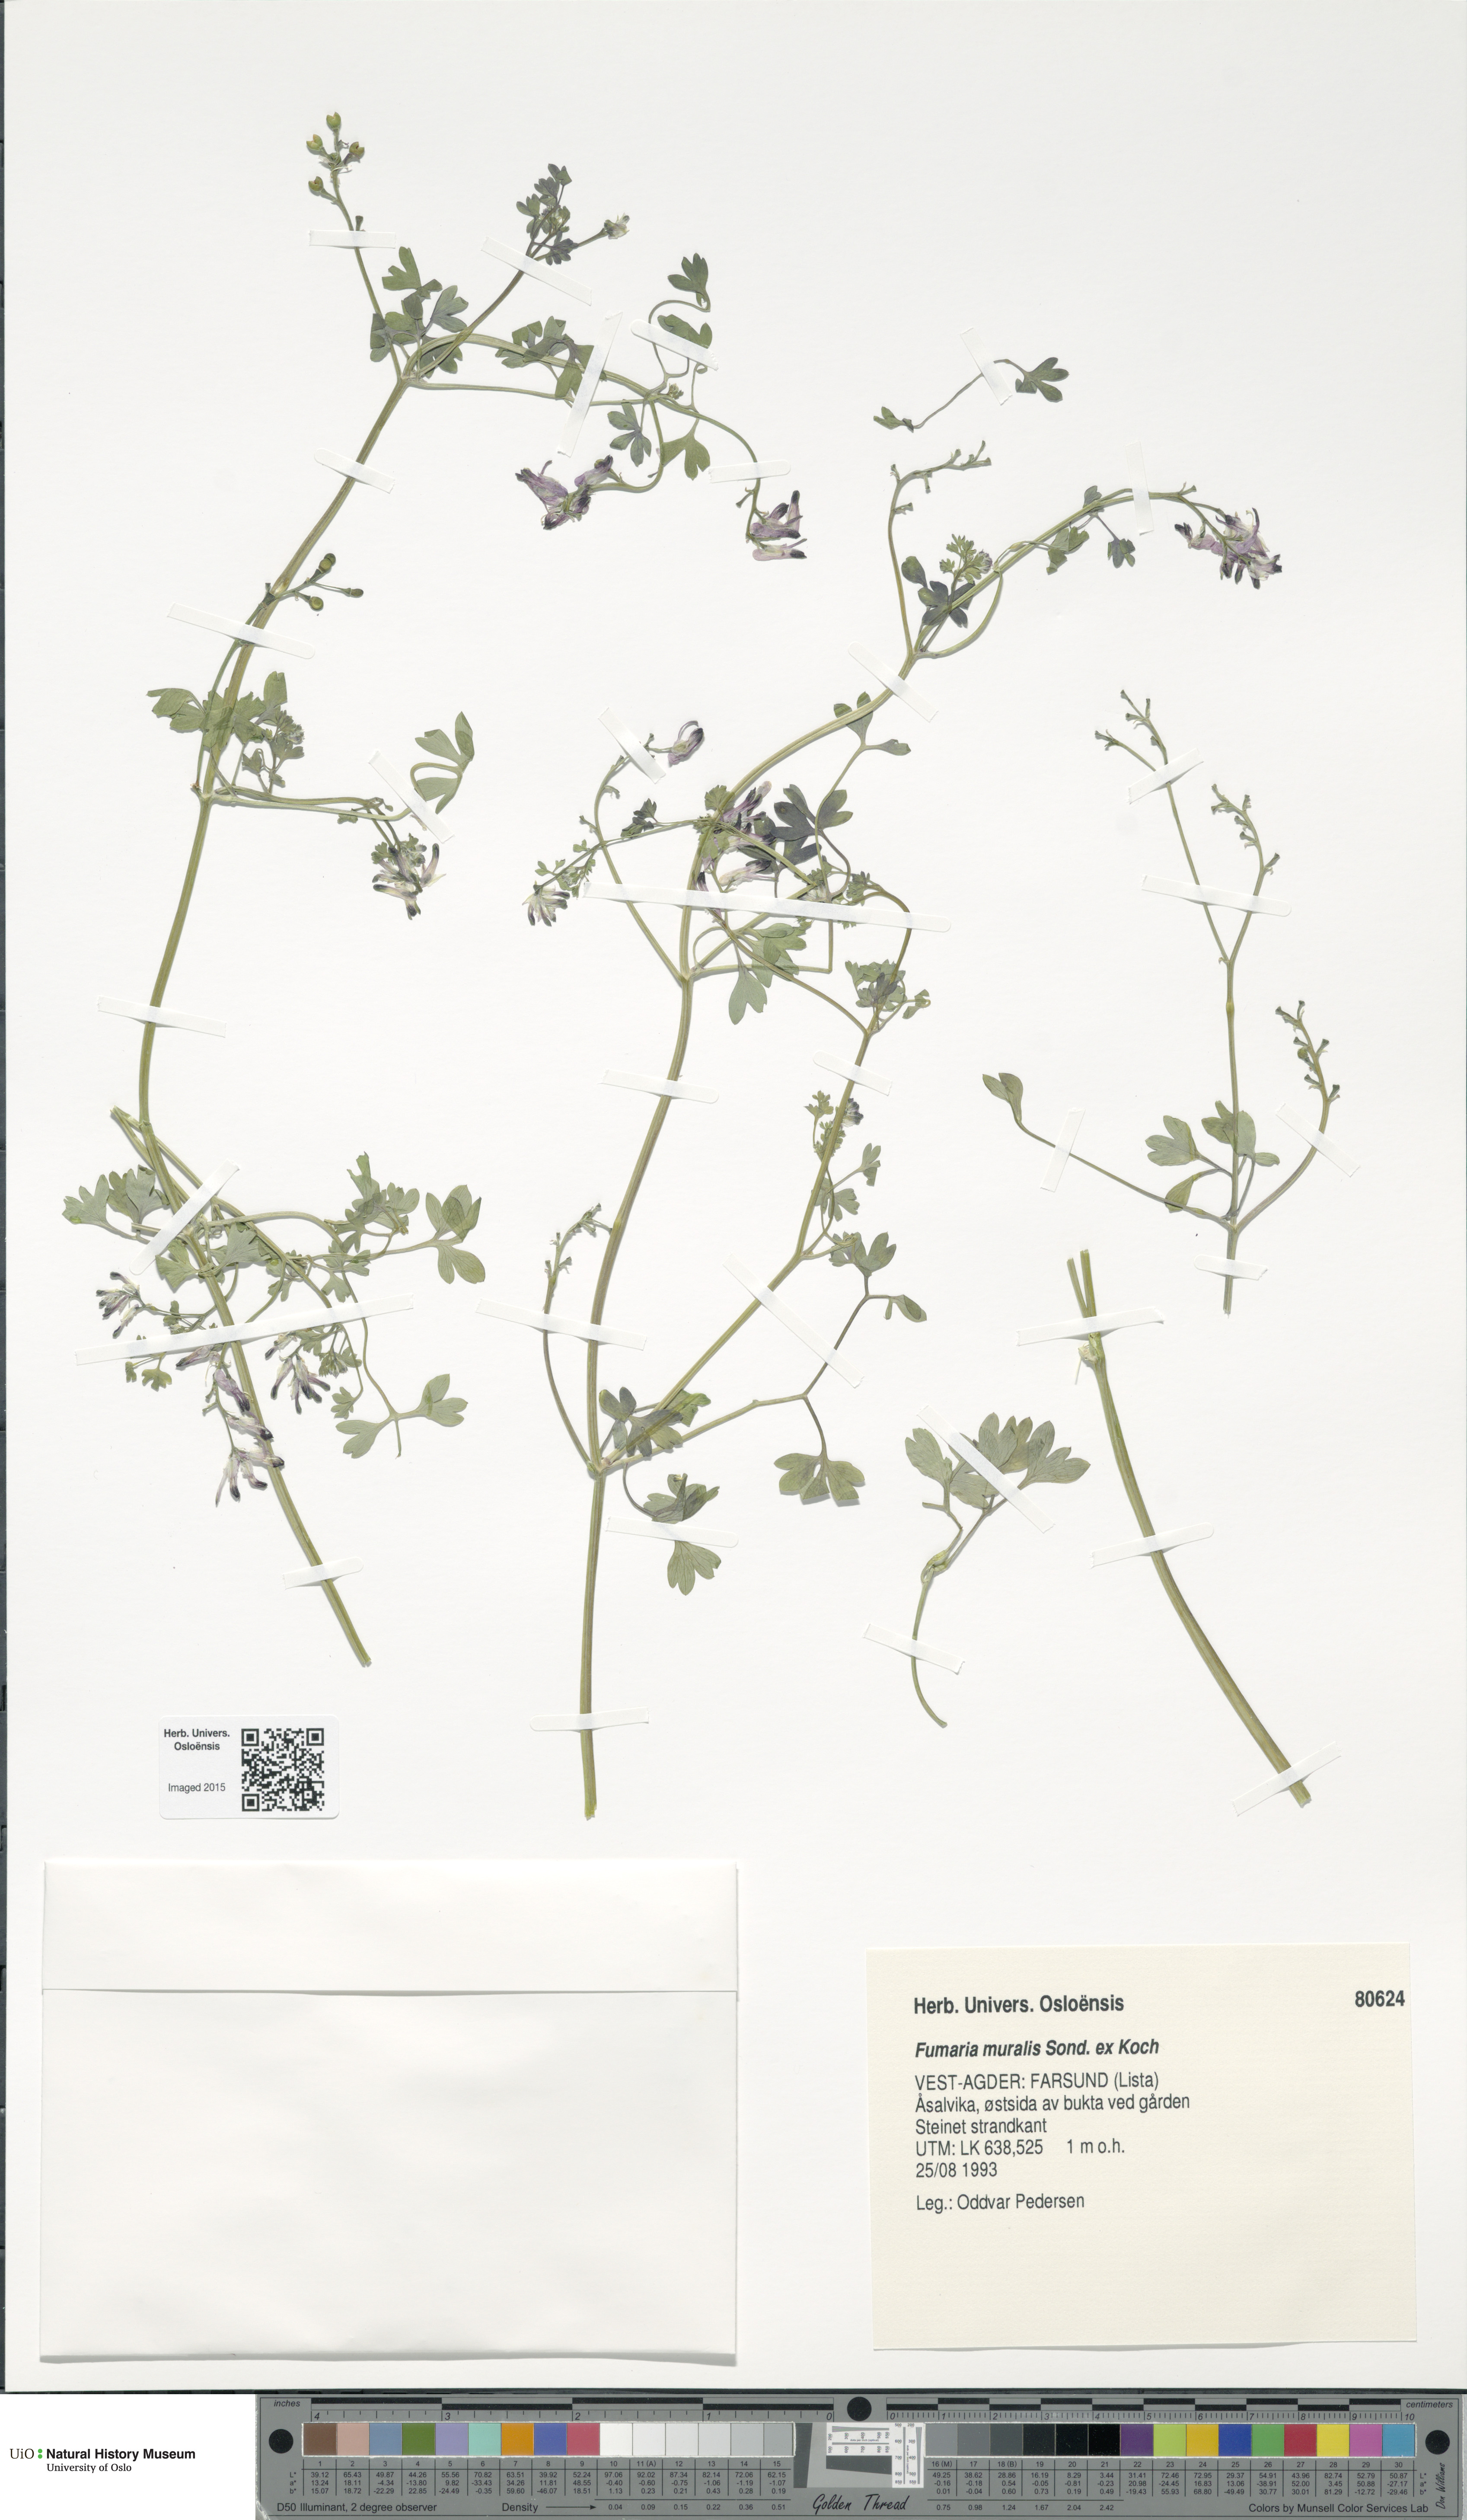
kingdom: Plantae
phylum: Tracheophyta
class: Magnoliopsida
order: Ranunculales
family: Papaveraceae
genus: Fumaria
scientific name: Fumaria muralis
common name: Common ramping-fumitory
